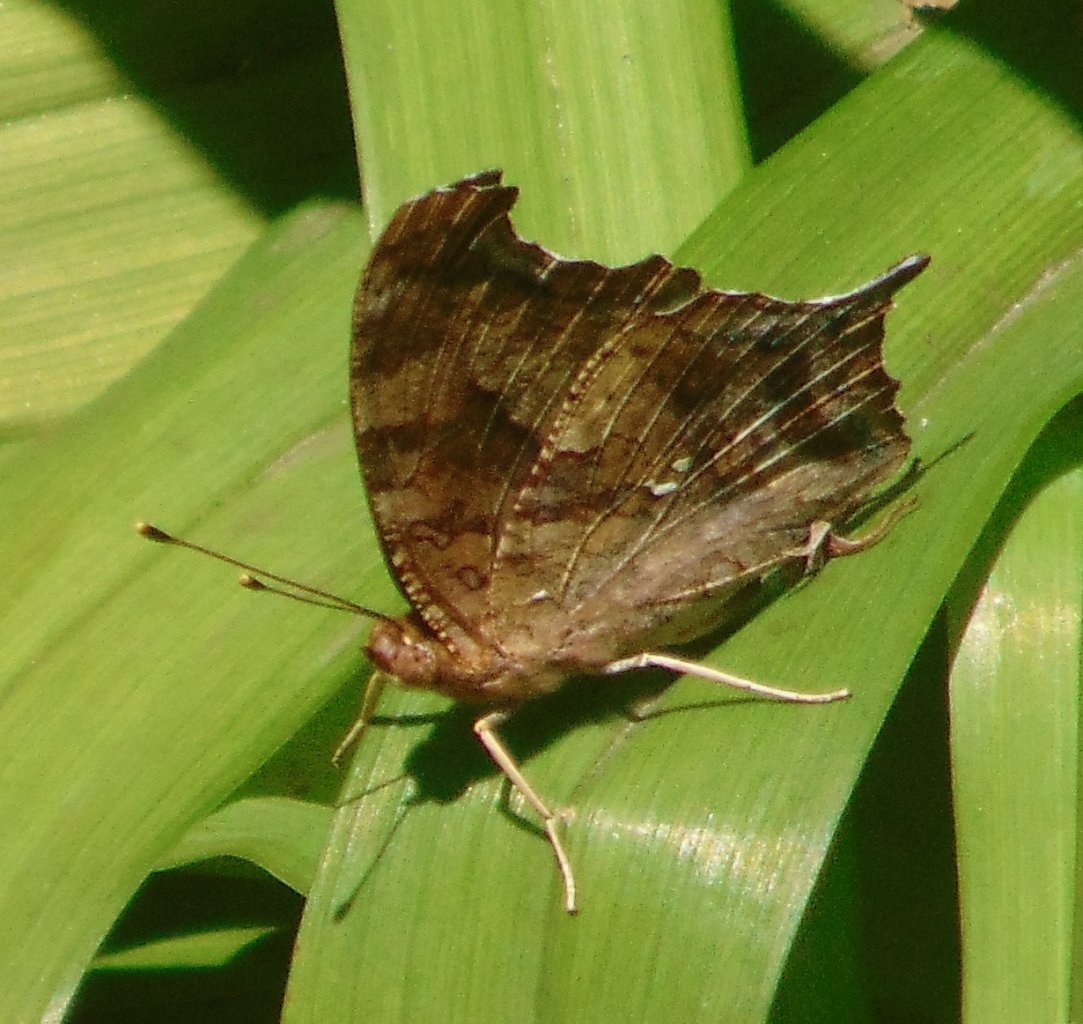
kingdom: Animalia
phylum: Arthropoda
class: Insecta
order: Lepidoptera
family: Nymphalidae
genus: Polygonia
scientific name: Polygonia interrogationis
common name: Question Mark
